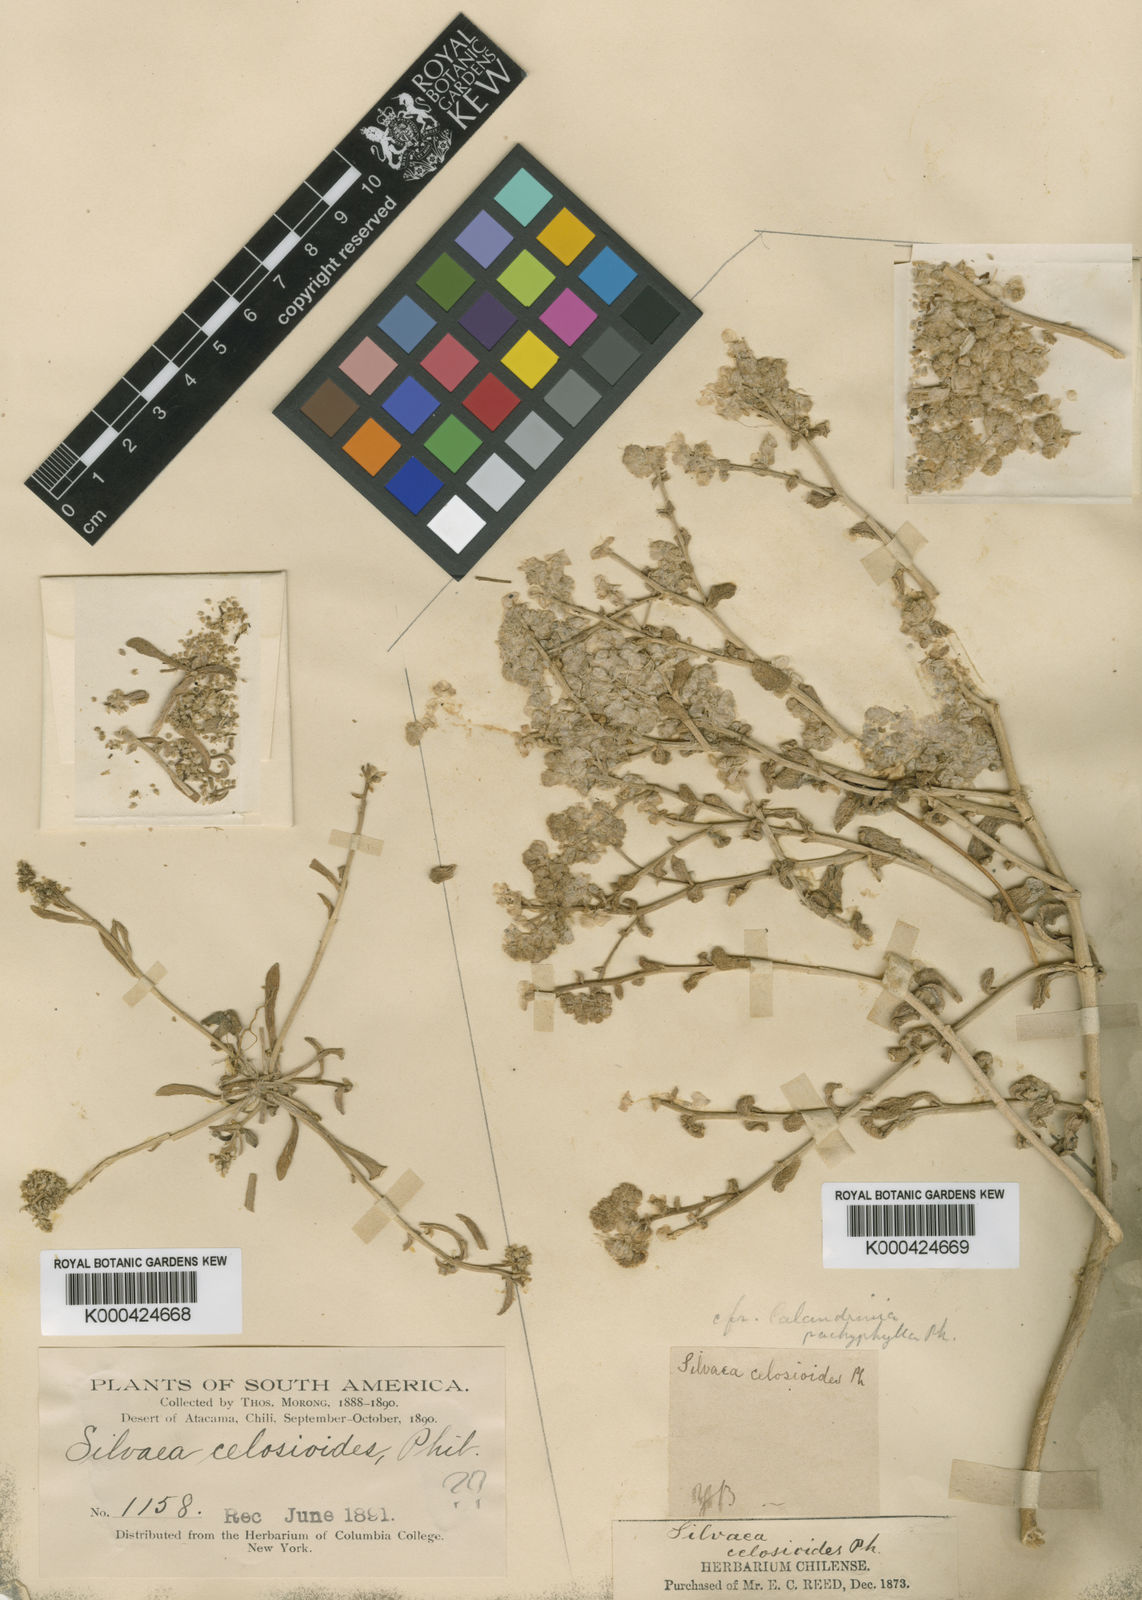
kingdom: Plantae
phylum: Tracheophyta
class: Magnoliopsida
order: Caryophyllales
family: Montiaceae
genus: Philippiamra
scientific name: Philippiamra celosioides
